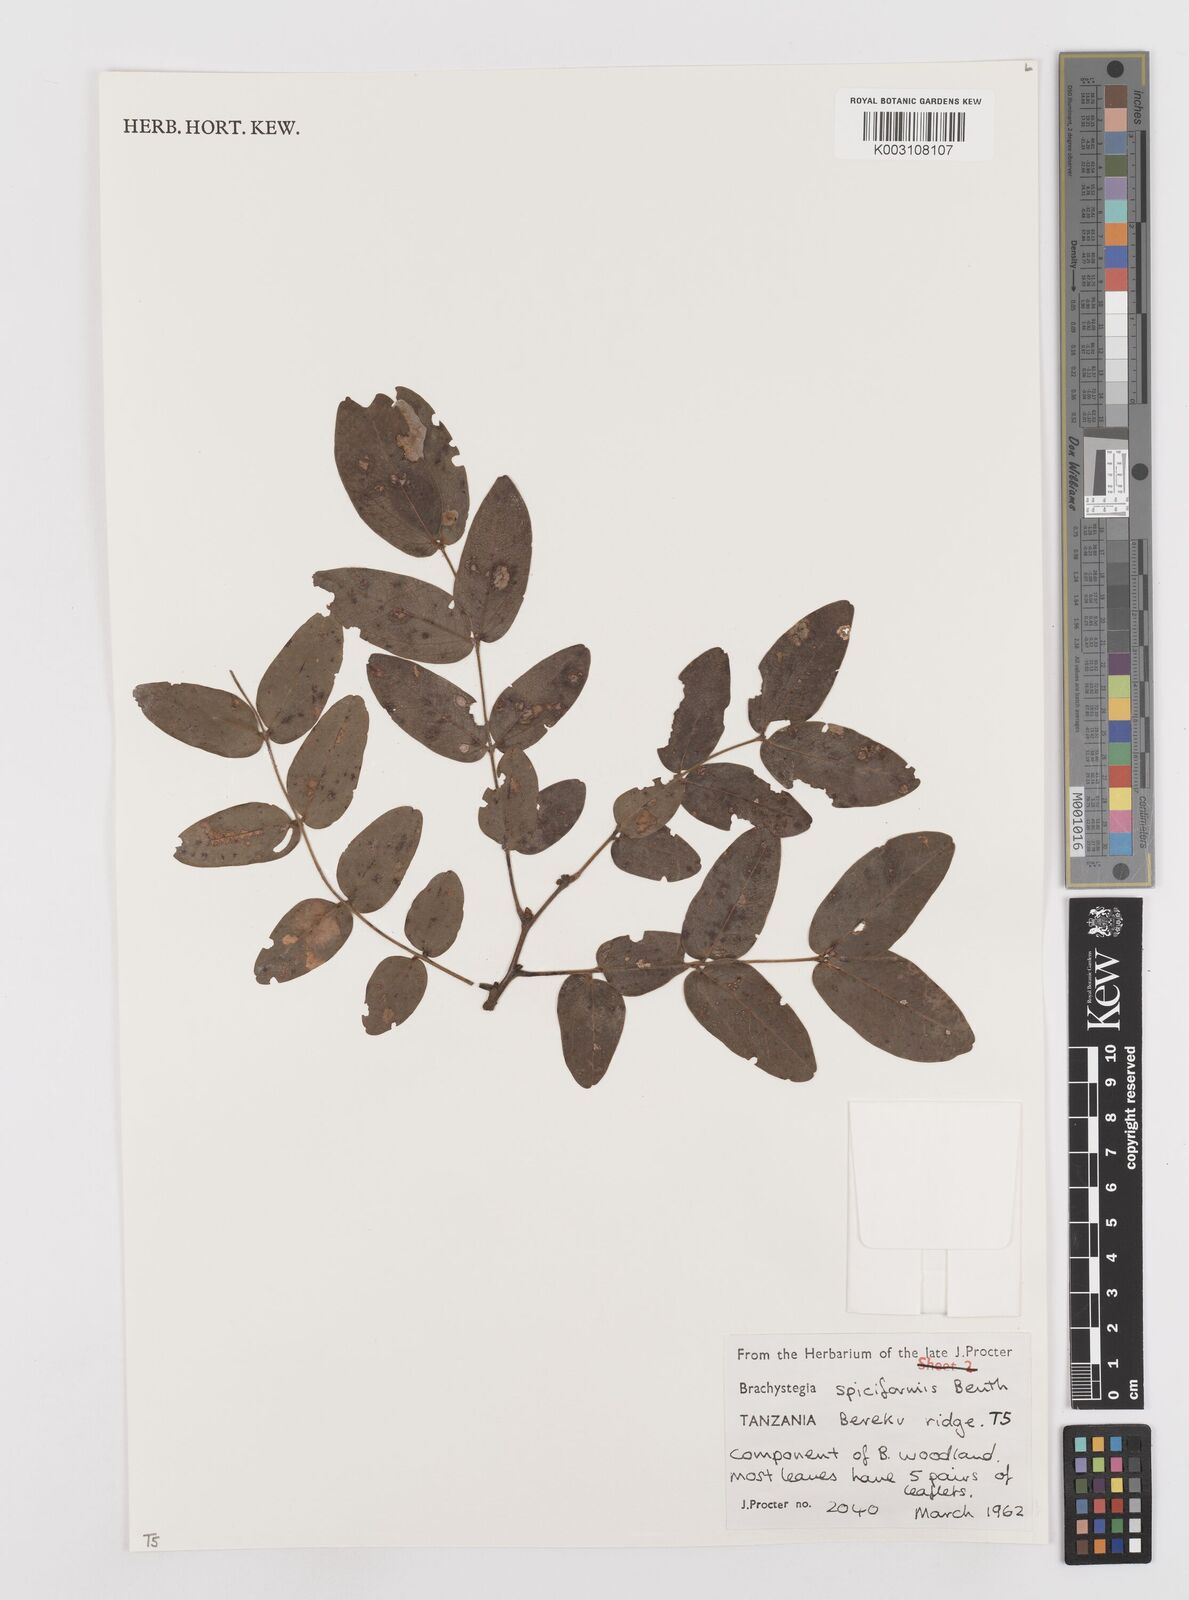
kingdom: Plantae
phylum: Tracheophyta
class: Magnoliopsida
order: Fabales
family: Fabaceae
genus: Brachystegia
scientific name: Brachystegia spiciformis
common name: Zebrawood
